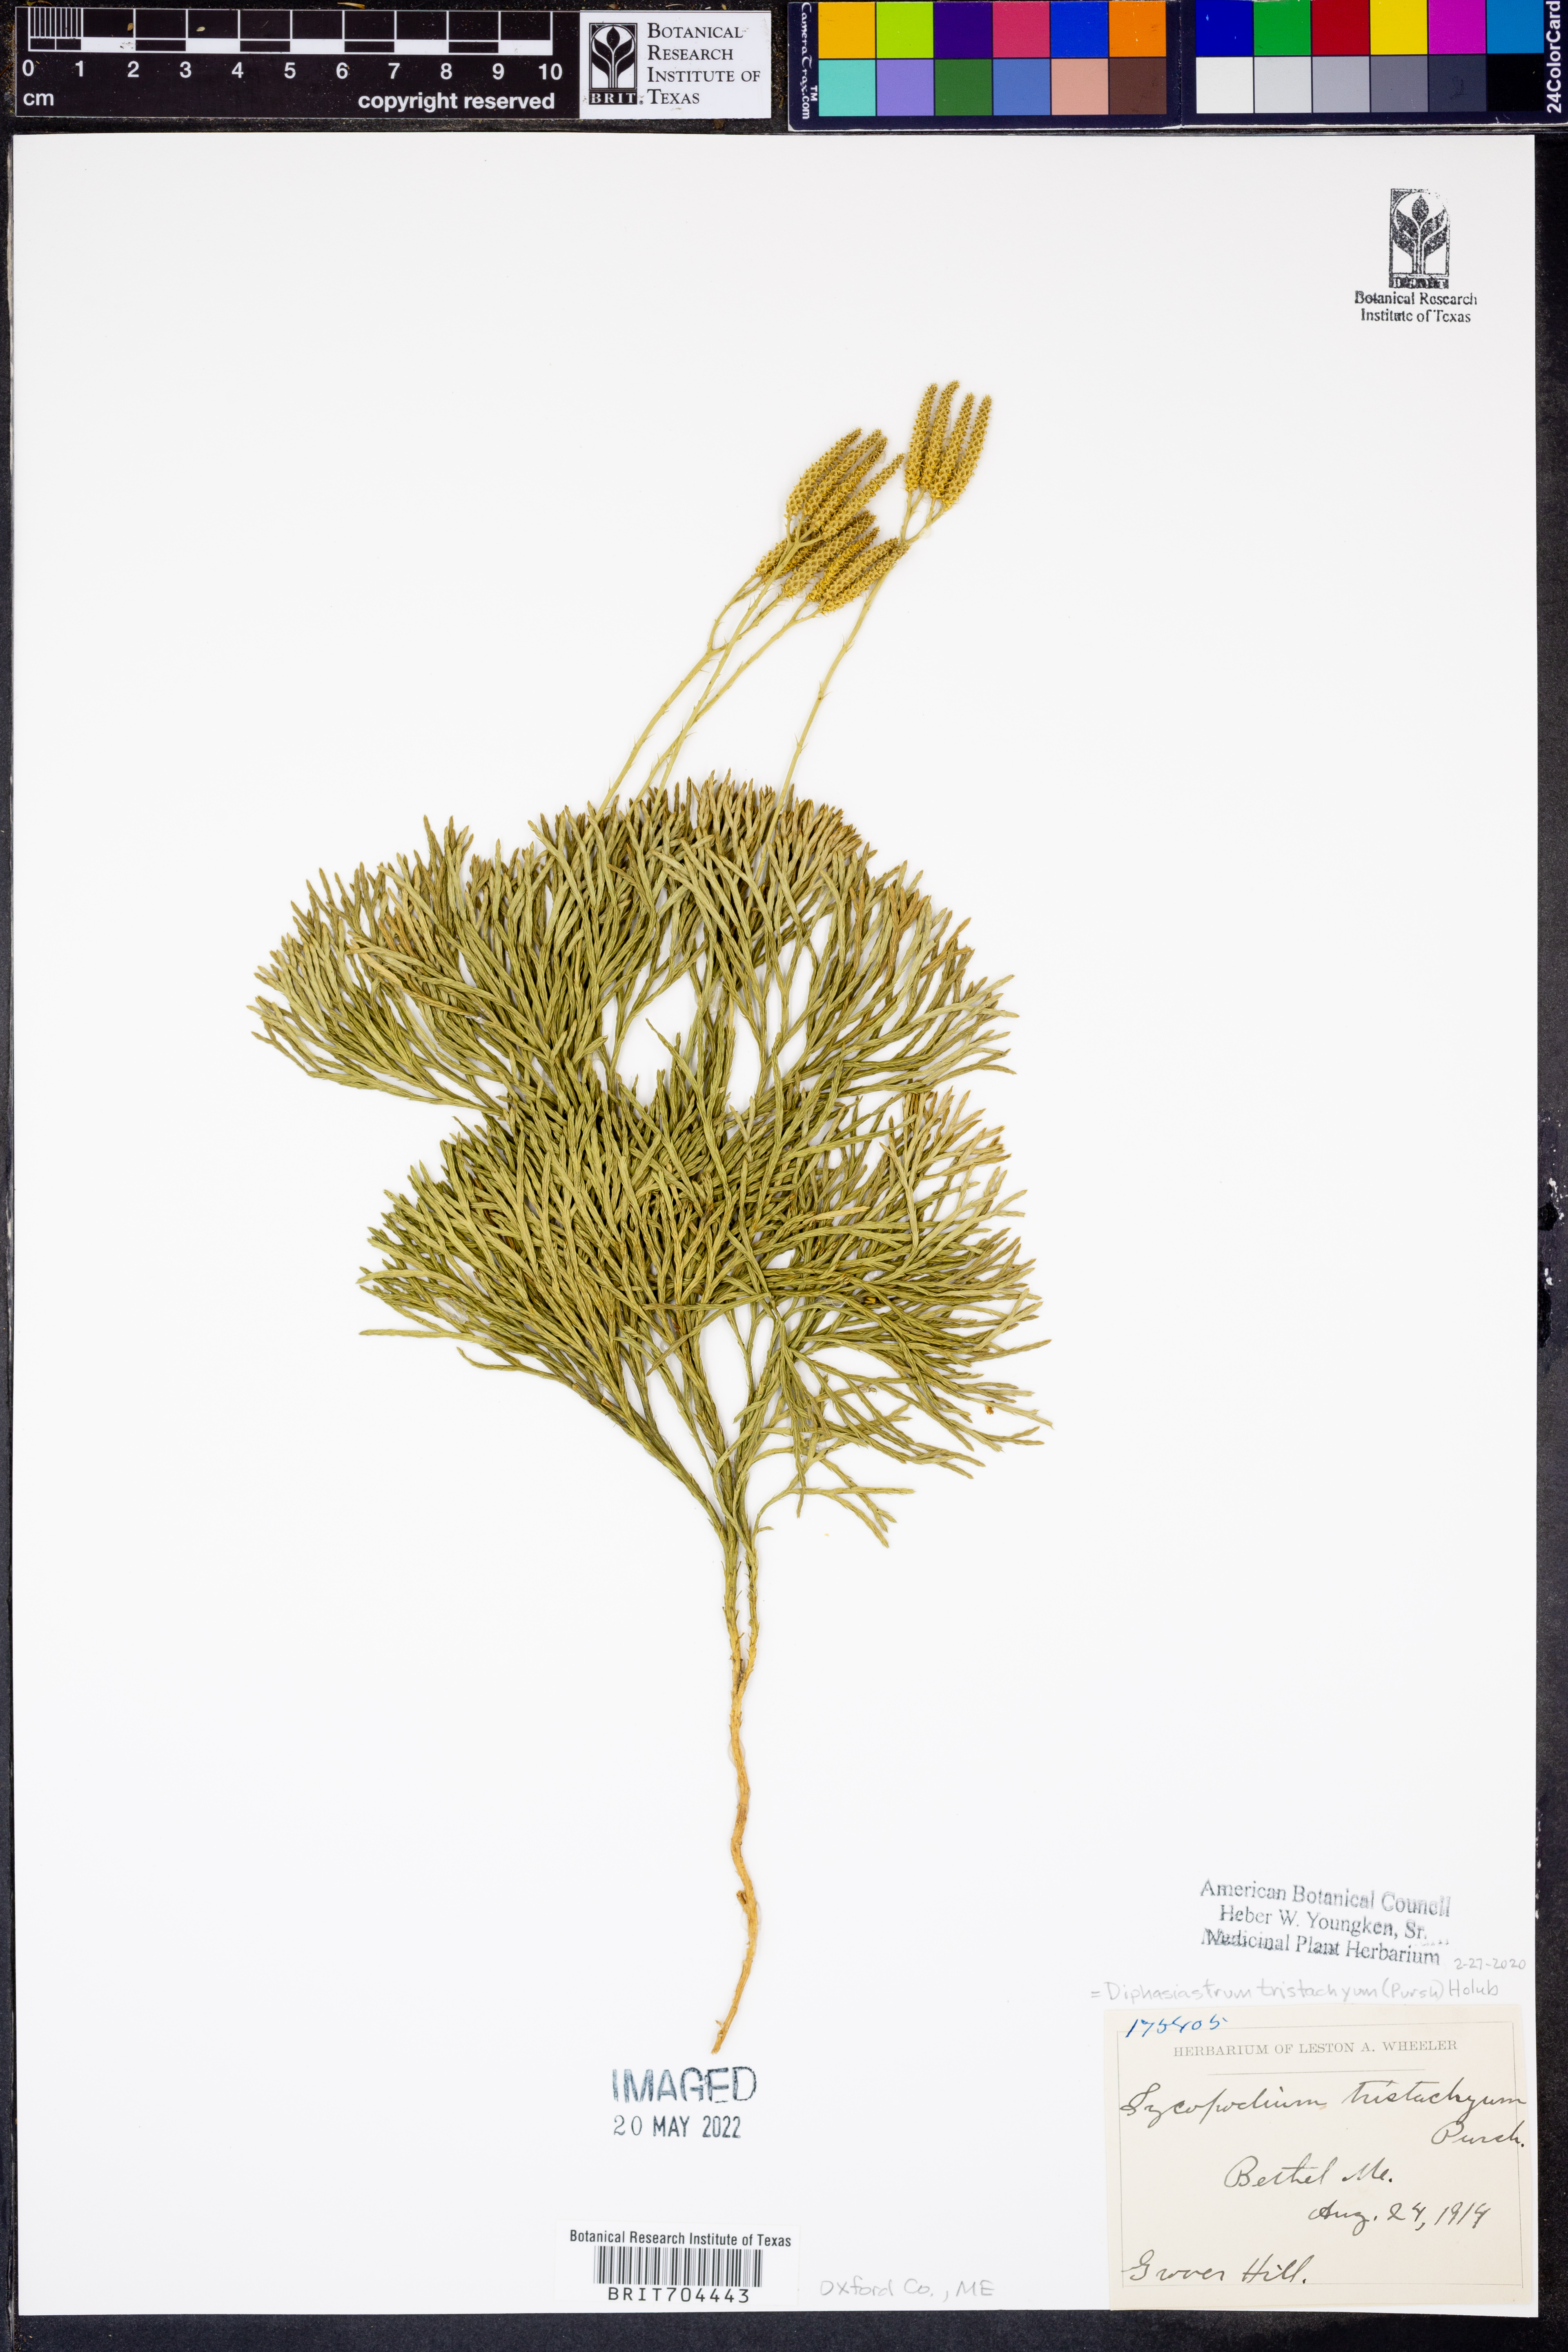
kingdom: Plantae
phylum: Tracheophyta
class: Lycopodiopsida
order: Lycopodiales
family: Lycopodiaceae
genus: Diphasiastrum
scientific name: Diphasiastrum tristachyum
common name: Blue ground-cedar
